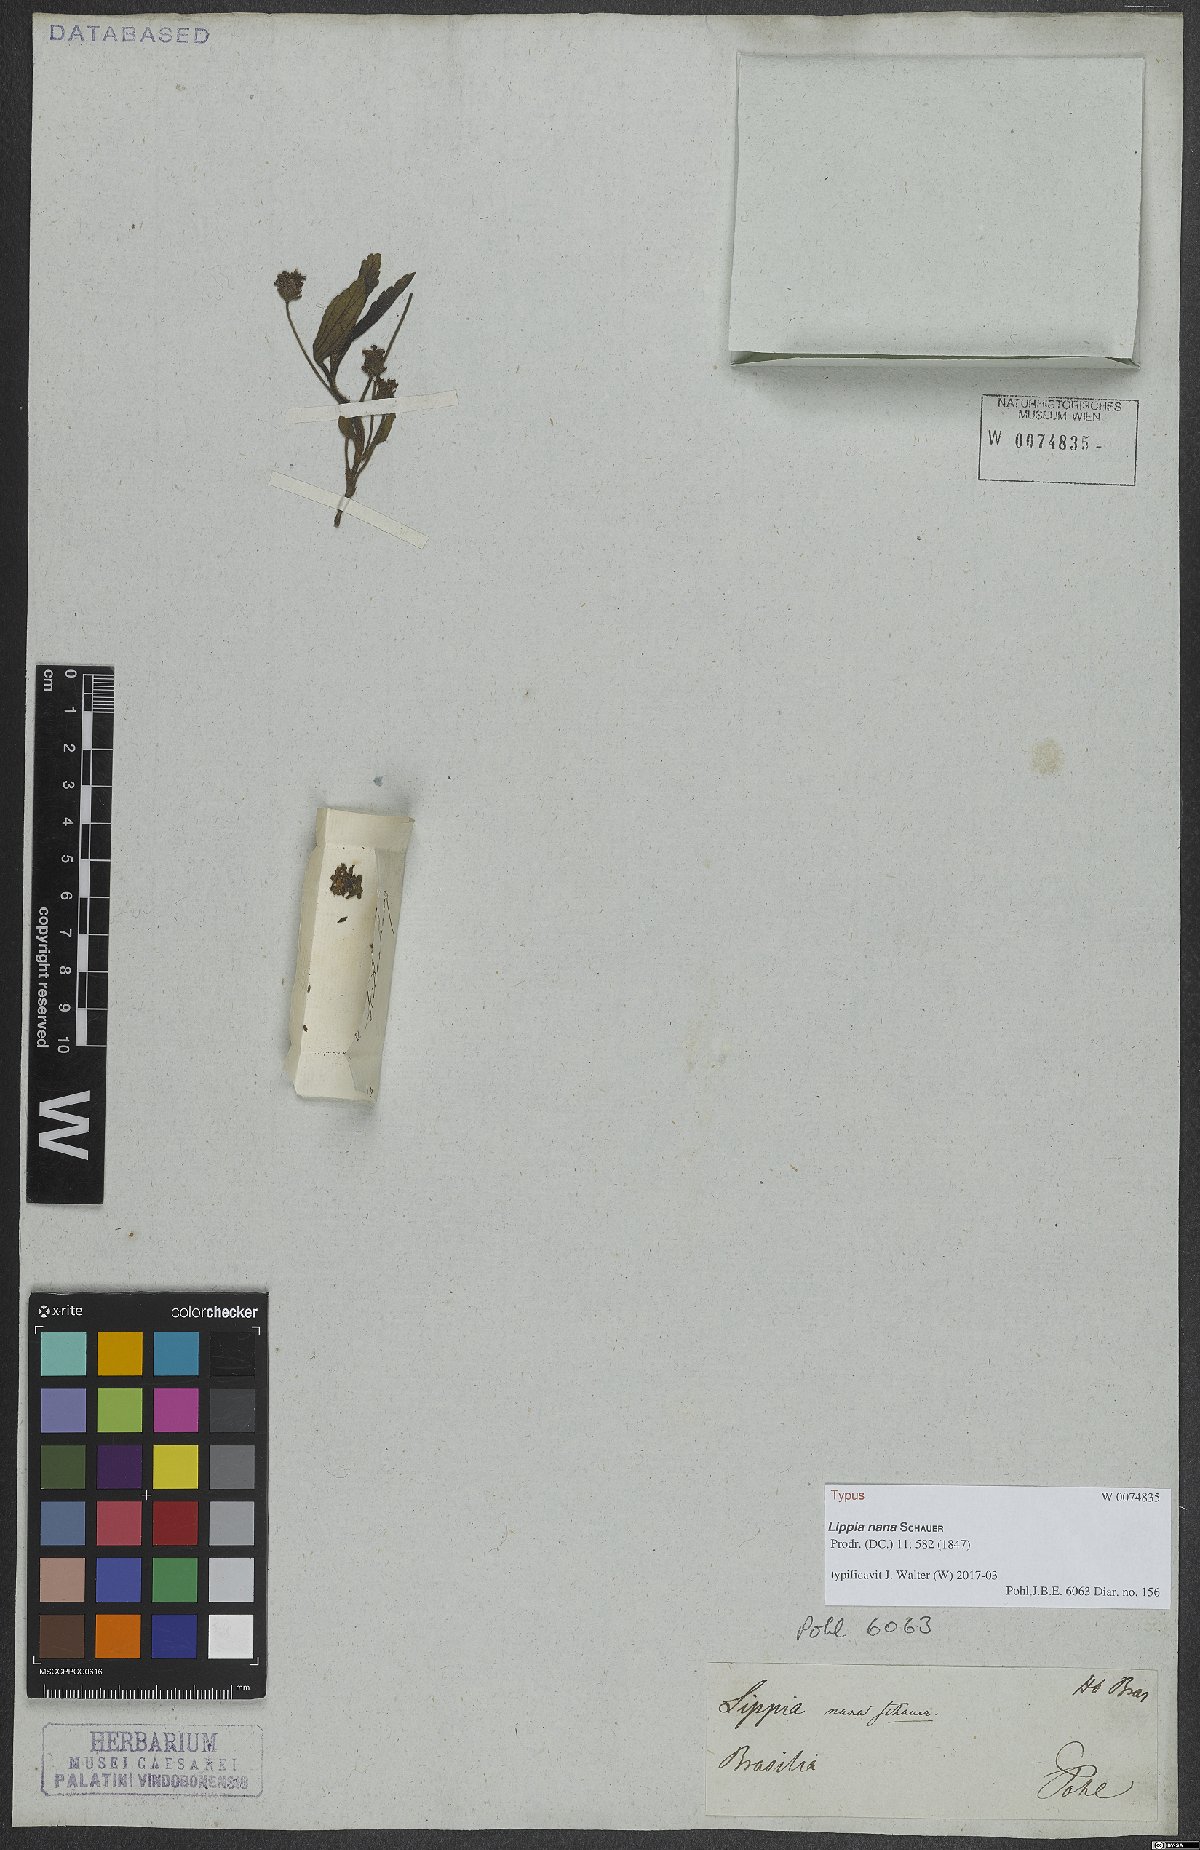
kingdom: Plantae
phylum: Tracheophyta
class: Magnoliopsida
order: Lamiales
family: Verbenaceae
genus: Lippia
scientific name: Lippia pumila
